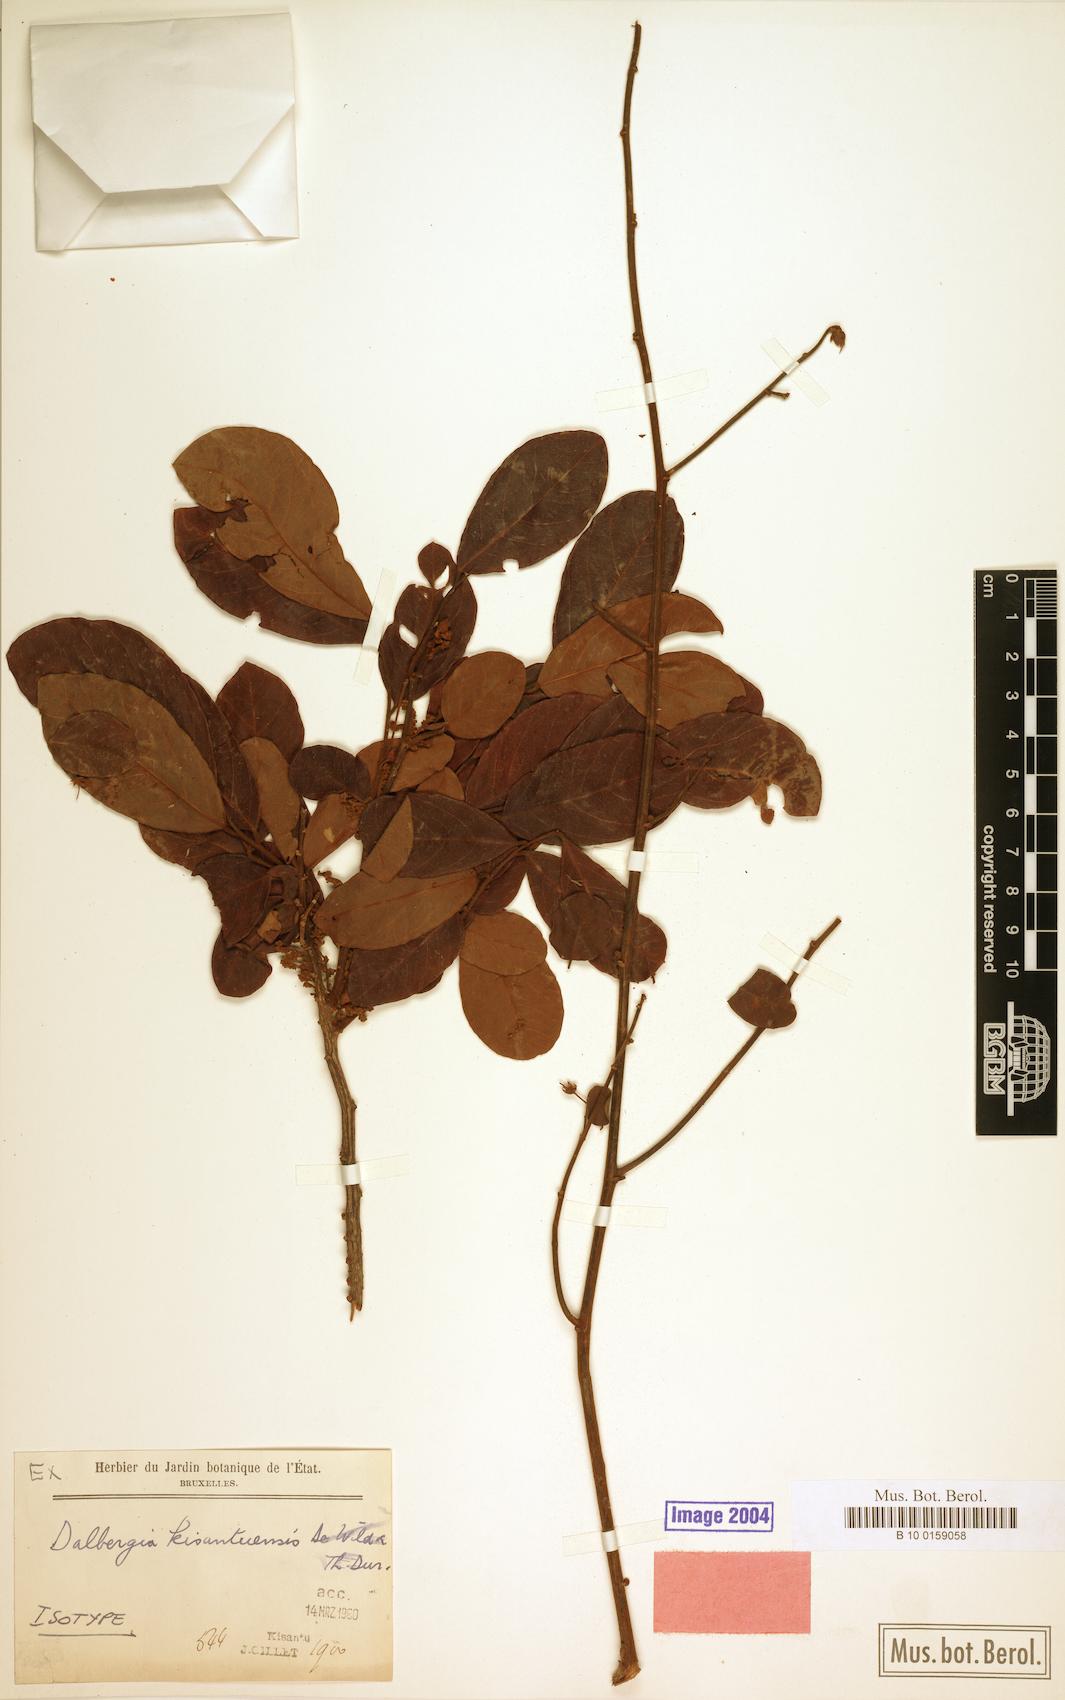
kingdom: Plantae
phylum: Tracheophyta
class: Magnoliopsida
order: Fabales
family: Fabaceae
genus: Dalbergia
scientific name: Dalbergia rufa
